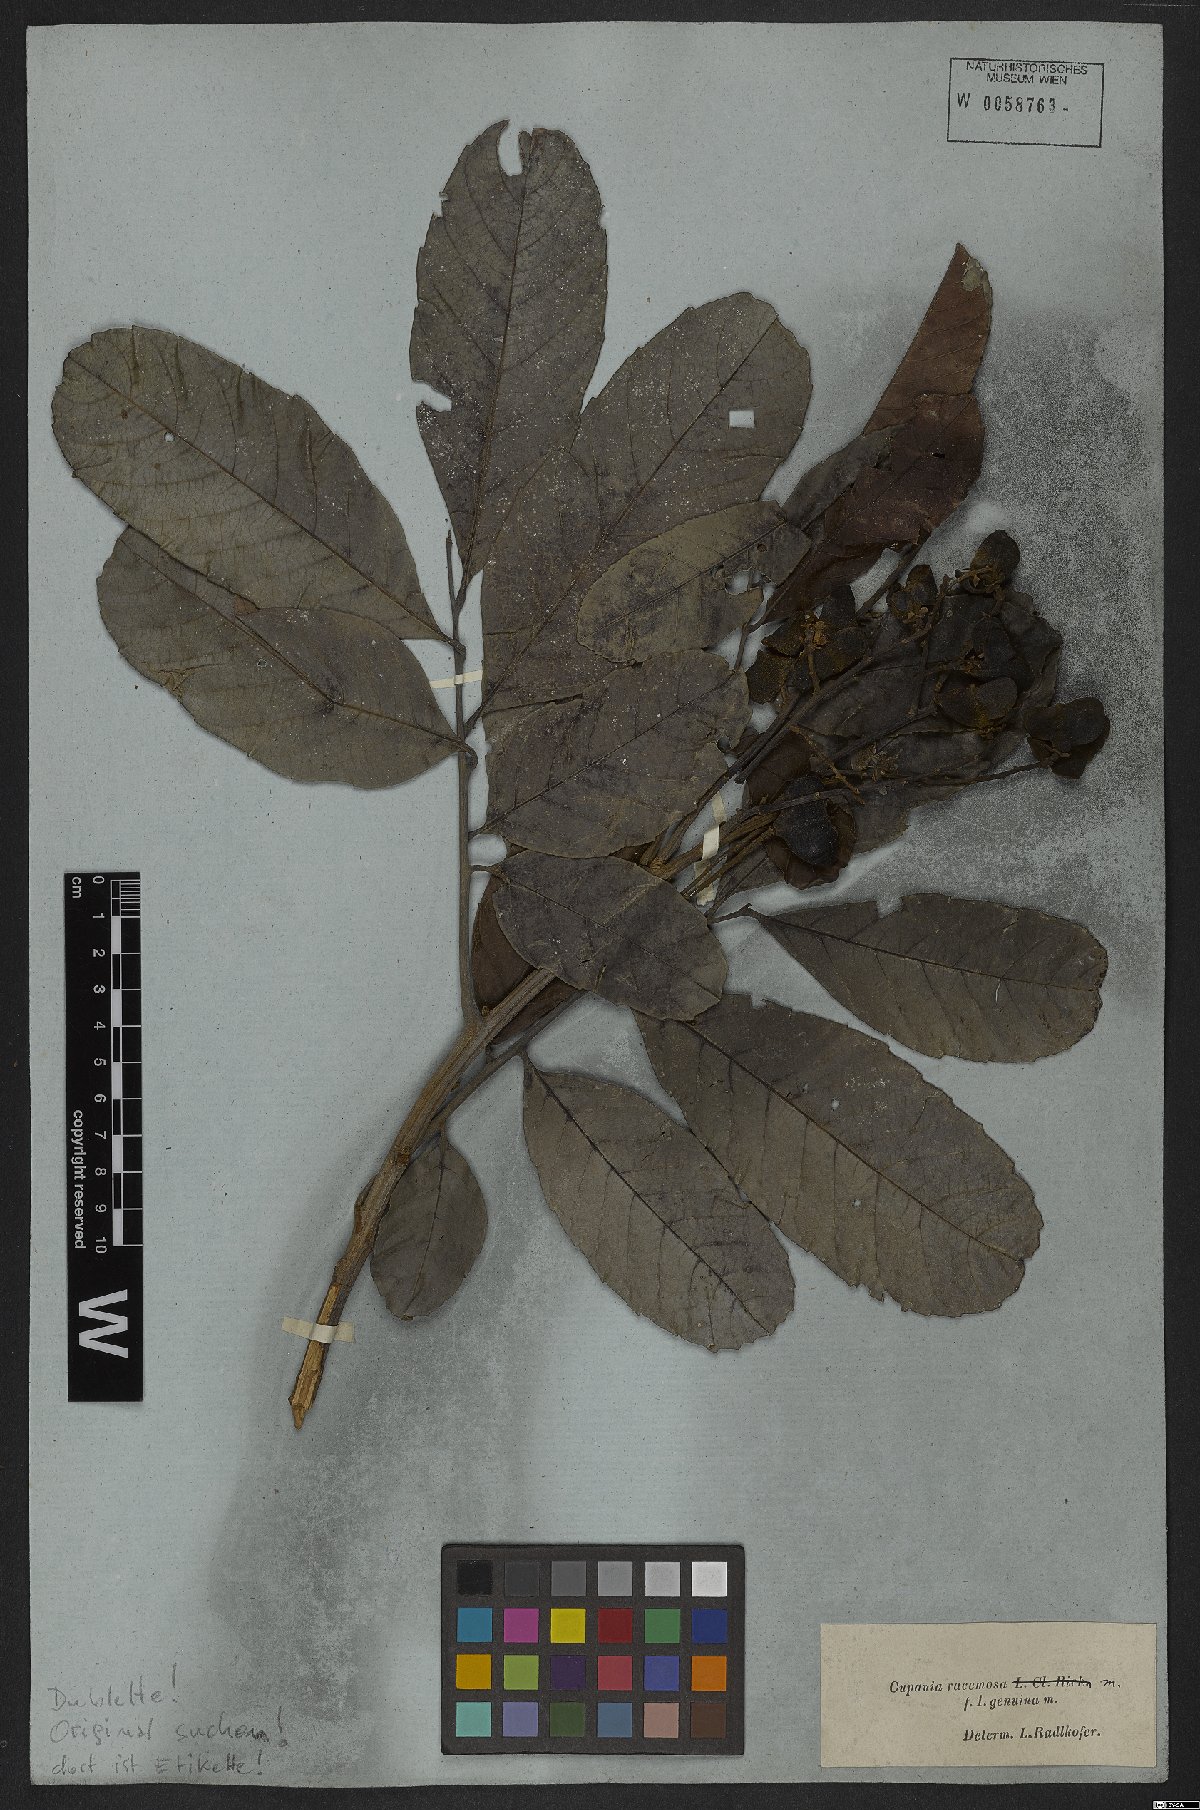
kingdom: Plantae
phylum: Tracheophyta
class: Magnoliopsida
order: Sapindales
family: Sapindaceae
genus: Cupania
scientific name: Cupania racemosa
